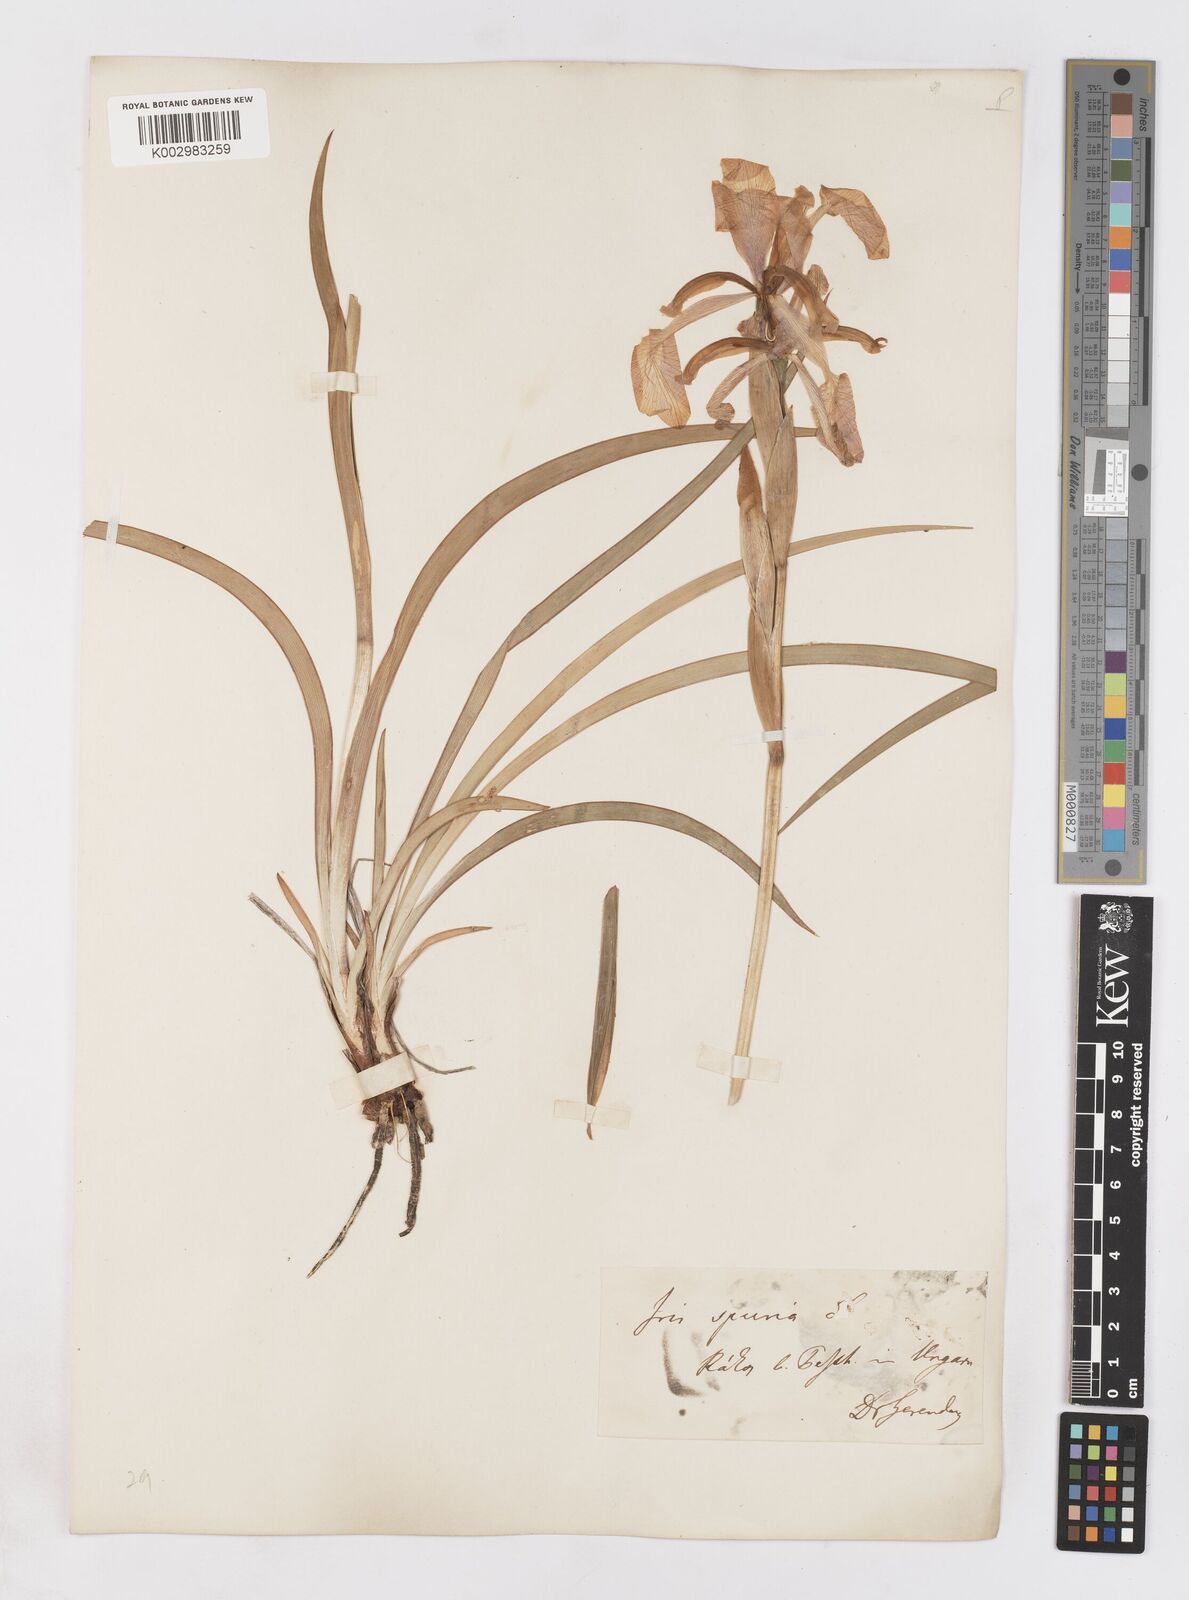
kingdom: Plantae
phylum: Tracheophyta
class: Liliopsida
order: Asparagales
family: Iridaceae
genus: Iris
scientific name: Iris spuria
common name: Blue iris
